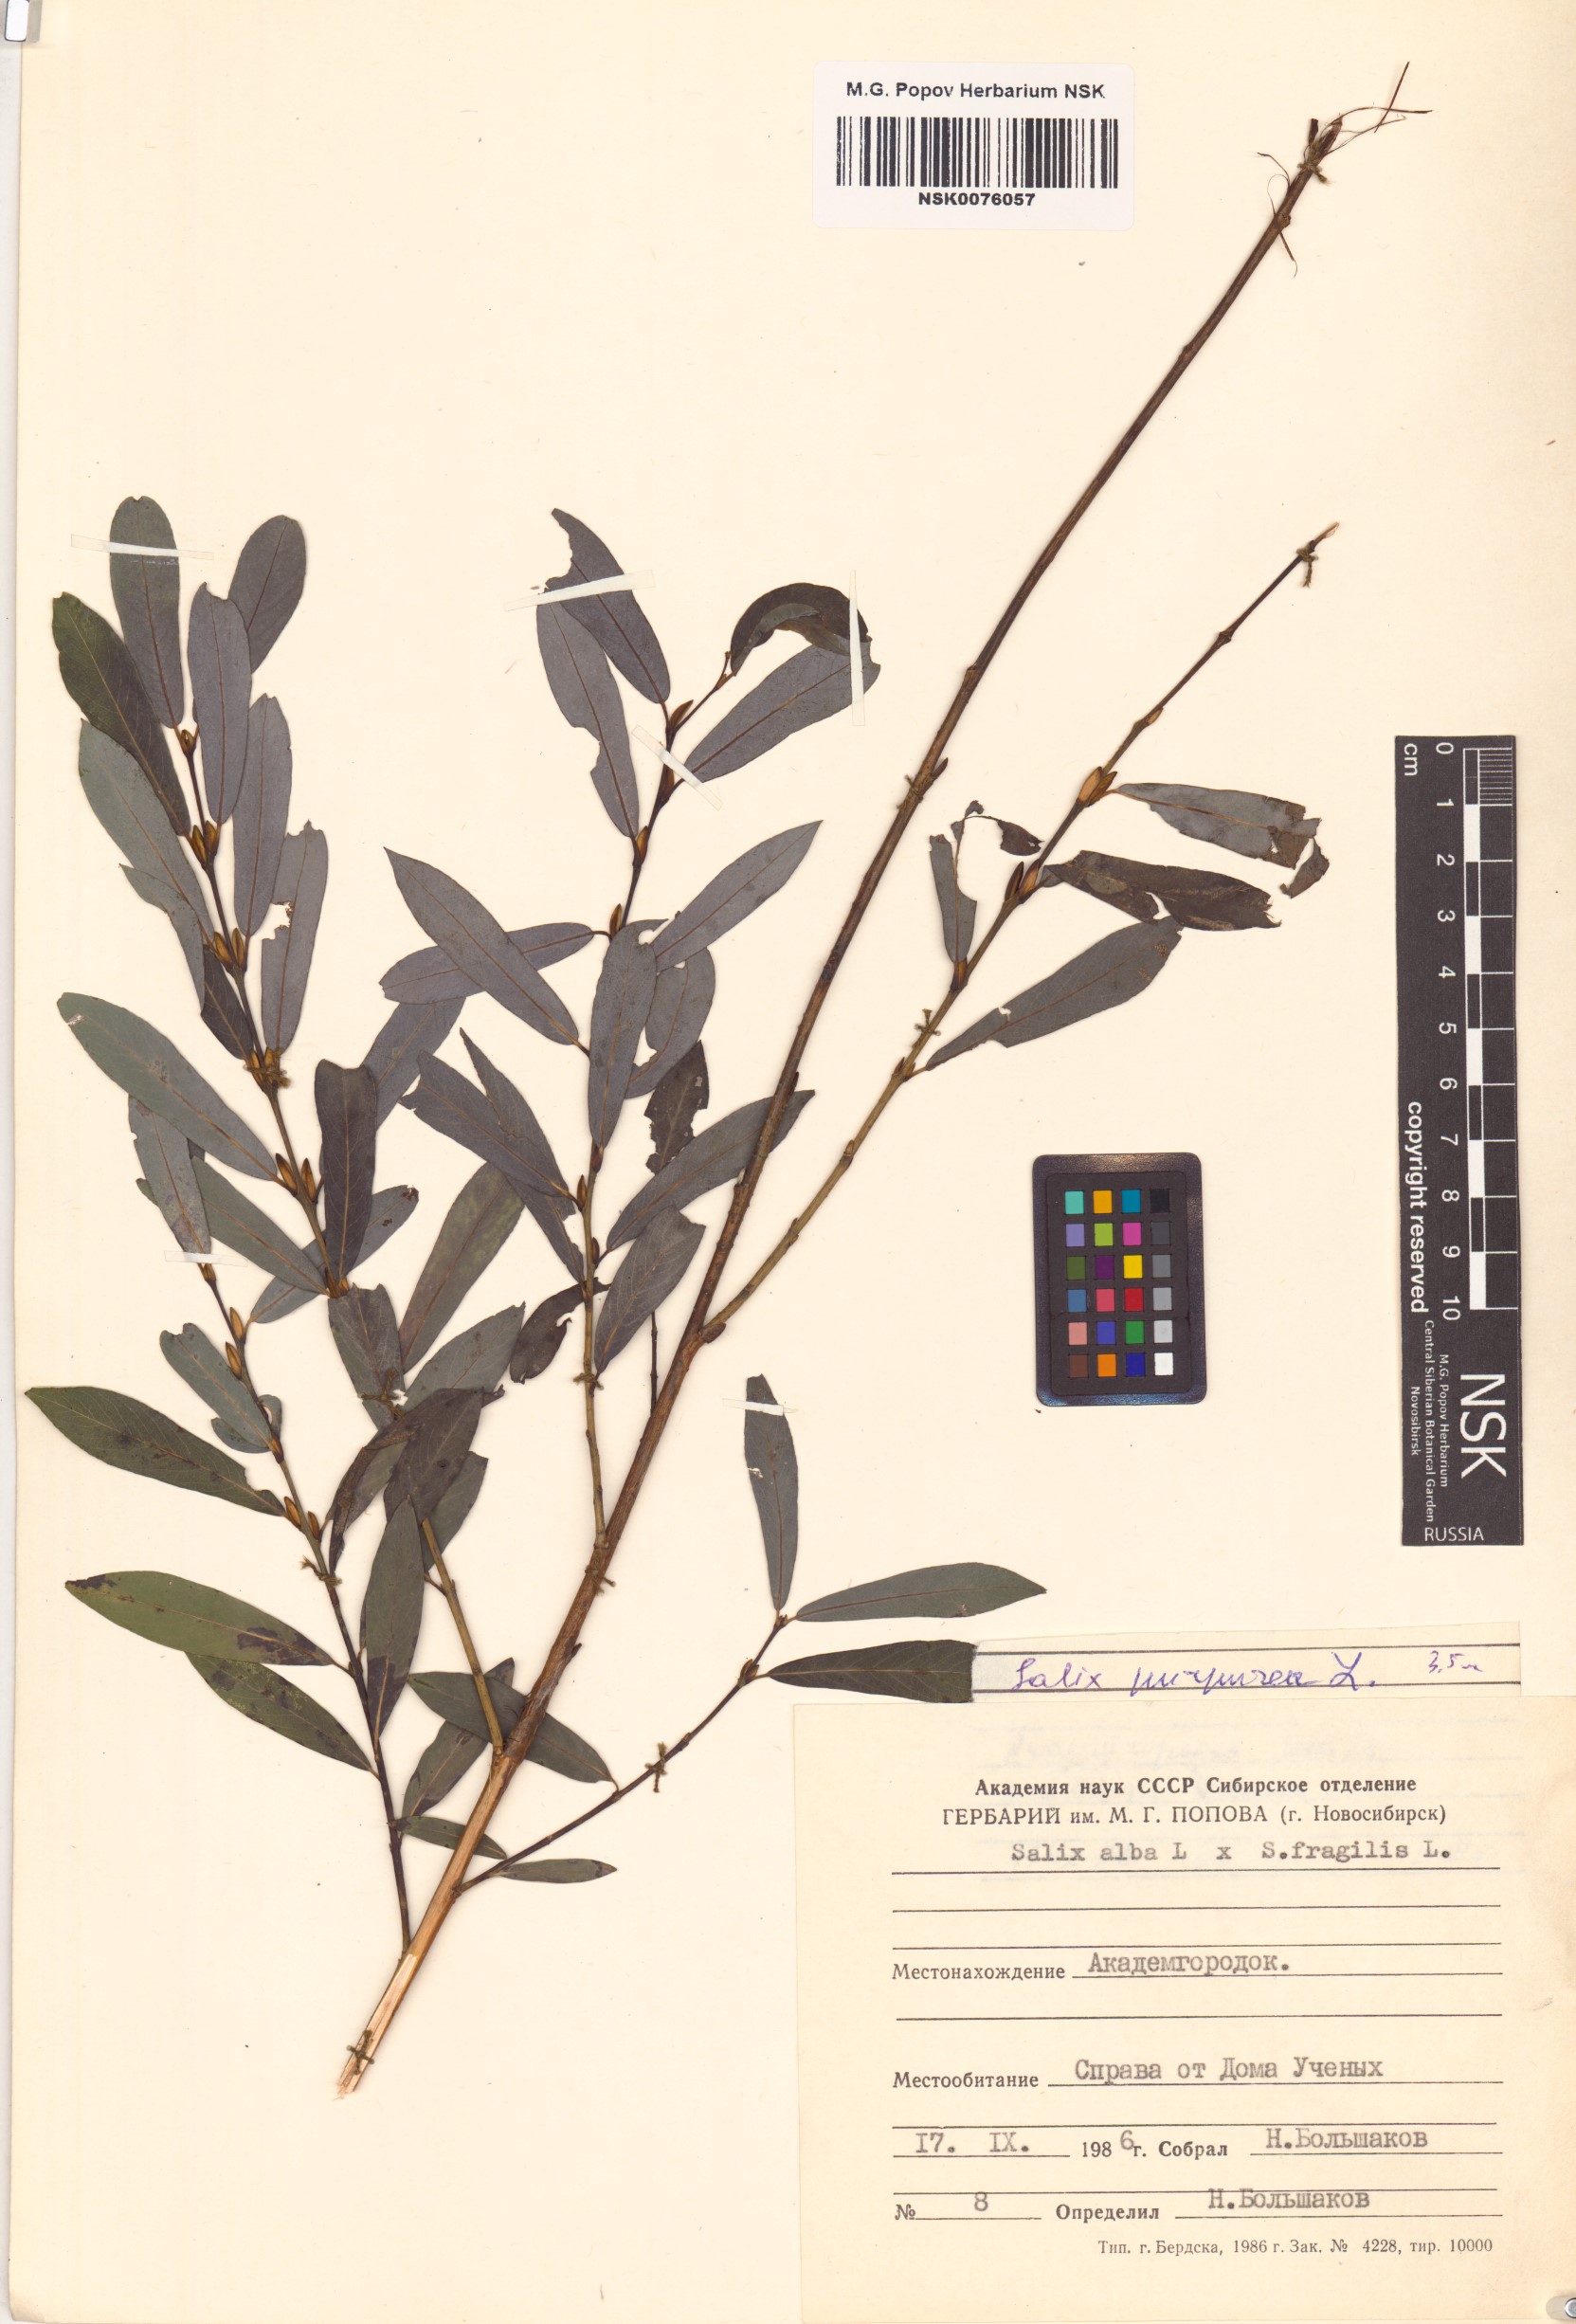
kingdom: Plantae
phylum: Tracheophyta
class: Magnoliopsida
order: Malpighiales
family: Salicaceae
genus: Salix
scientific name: Salix purpurea
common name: Purple willow
